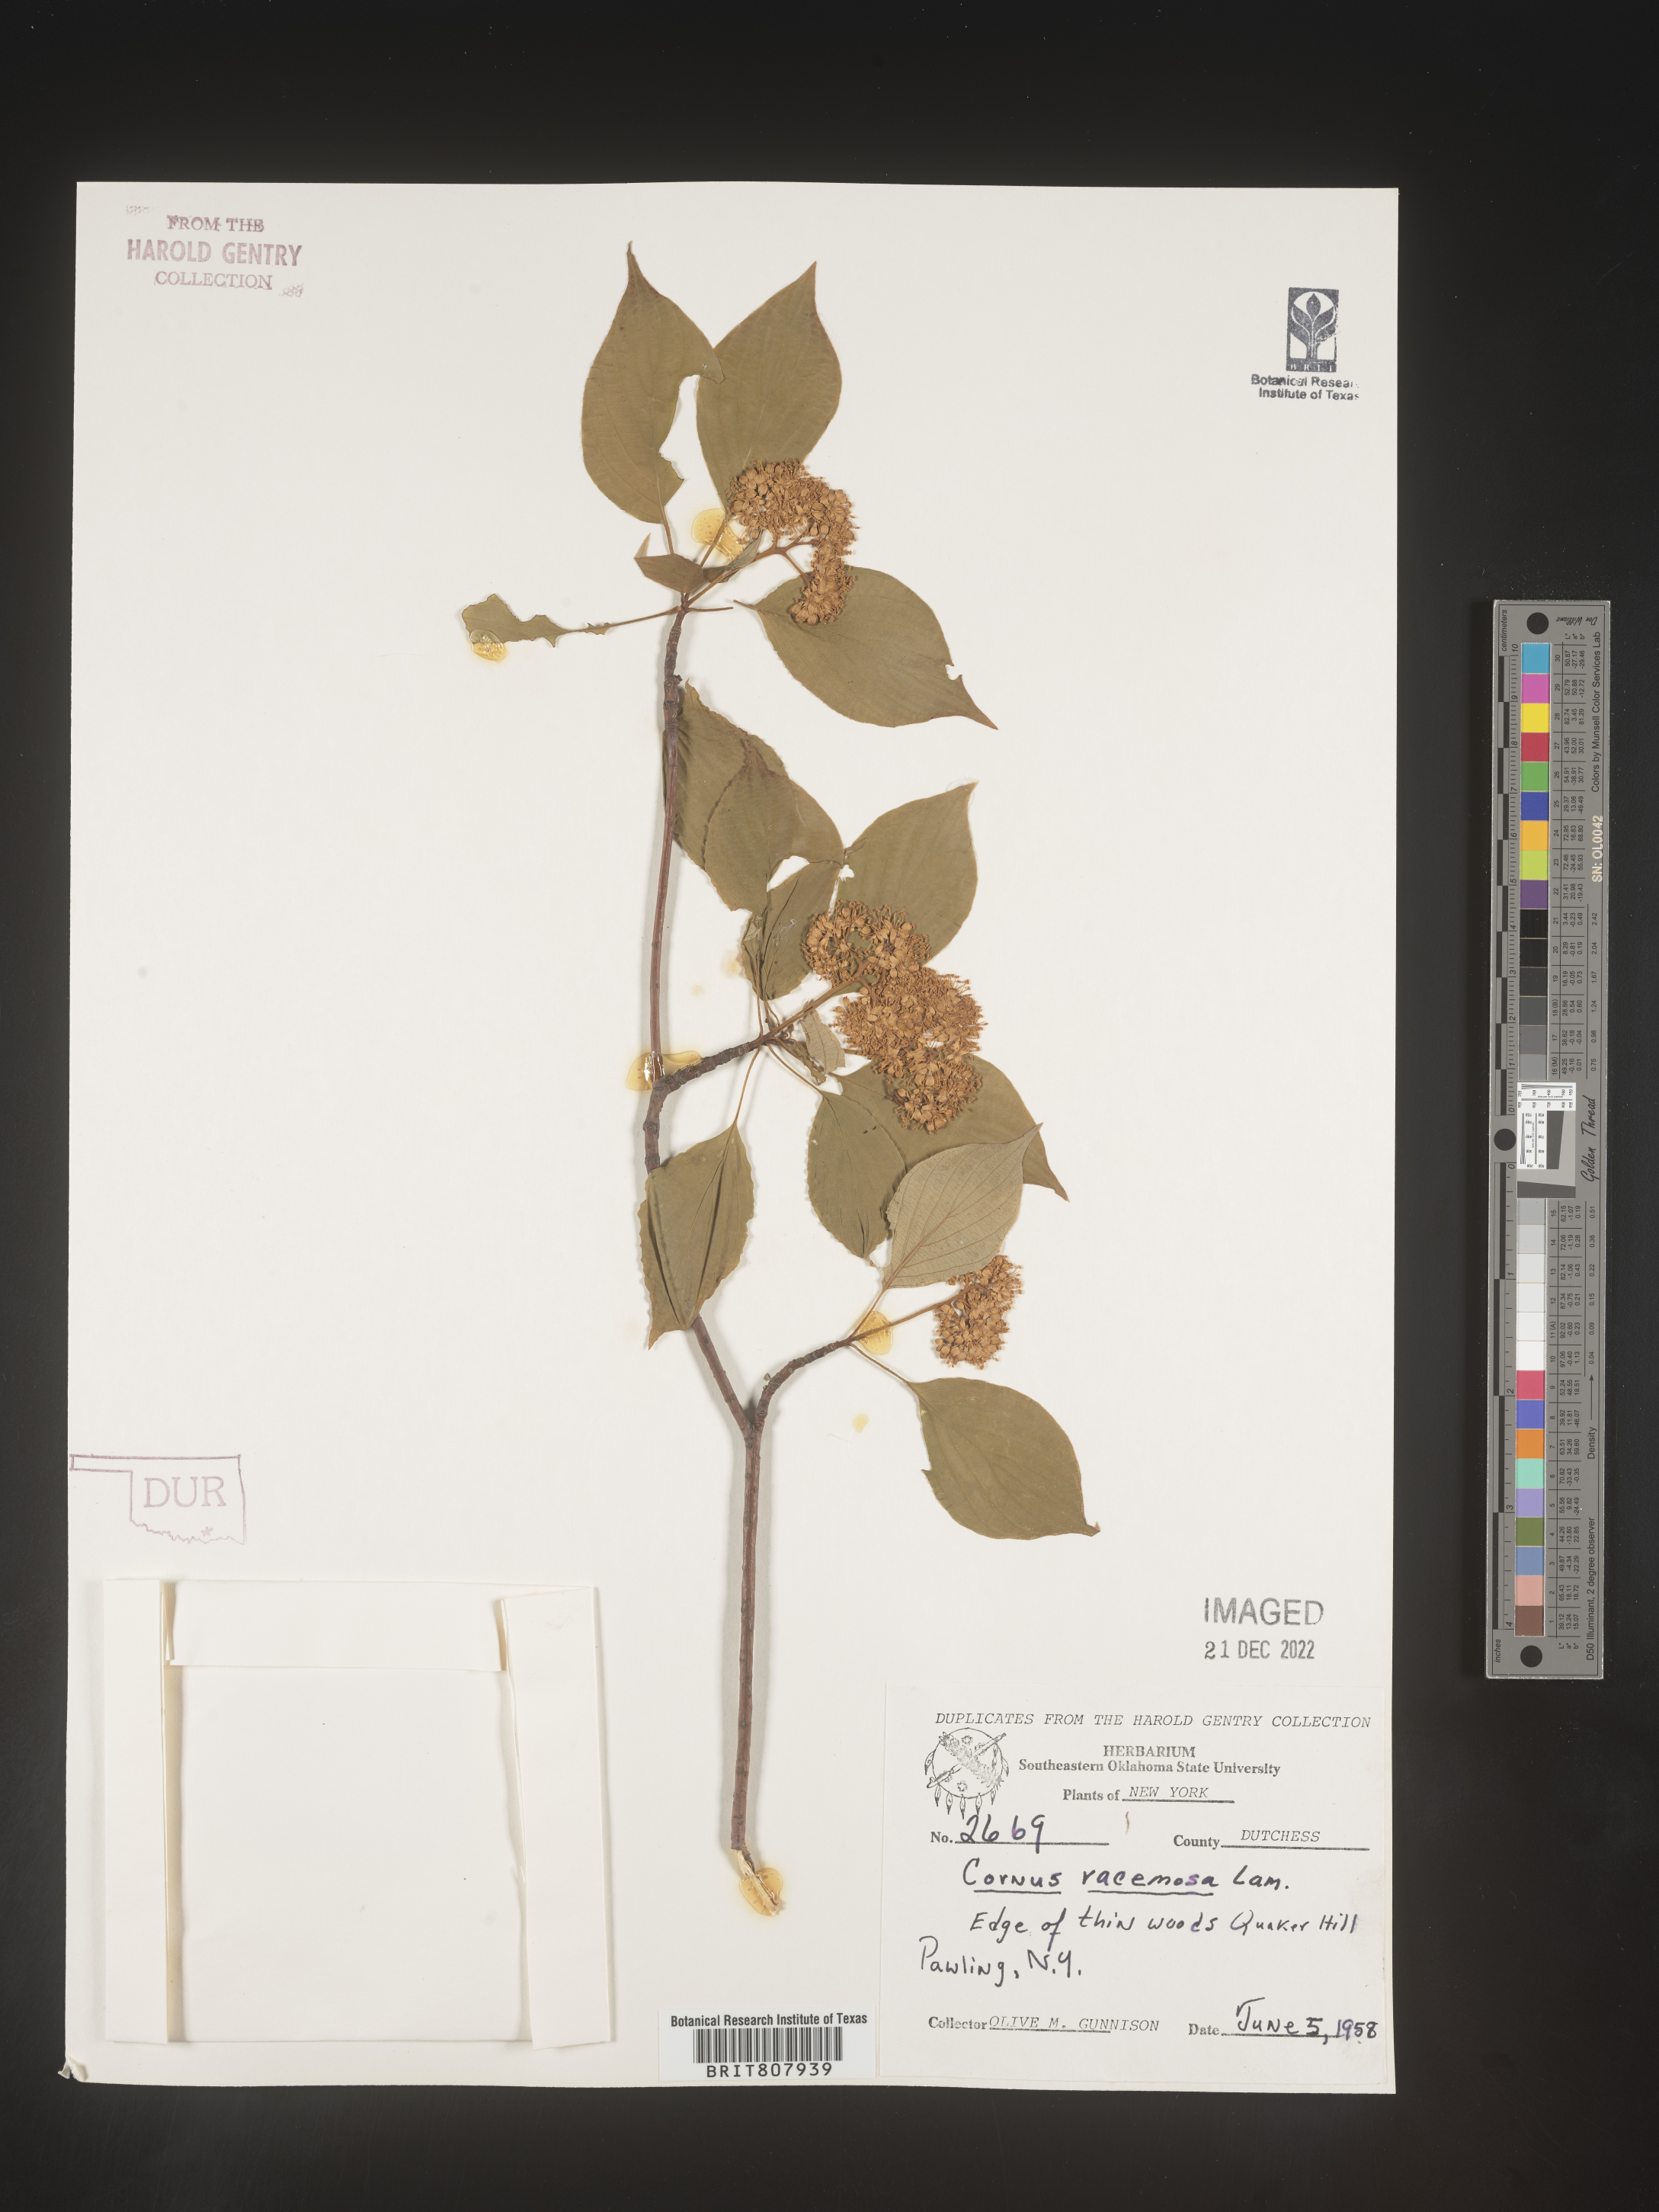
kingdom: Plantae
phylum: Tracheophyta
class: Magnoliopsida
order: Cornales
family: Cornaceae
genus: Cornus
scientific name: Cornus racemosa
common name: Panicled dogwood
